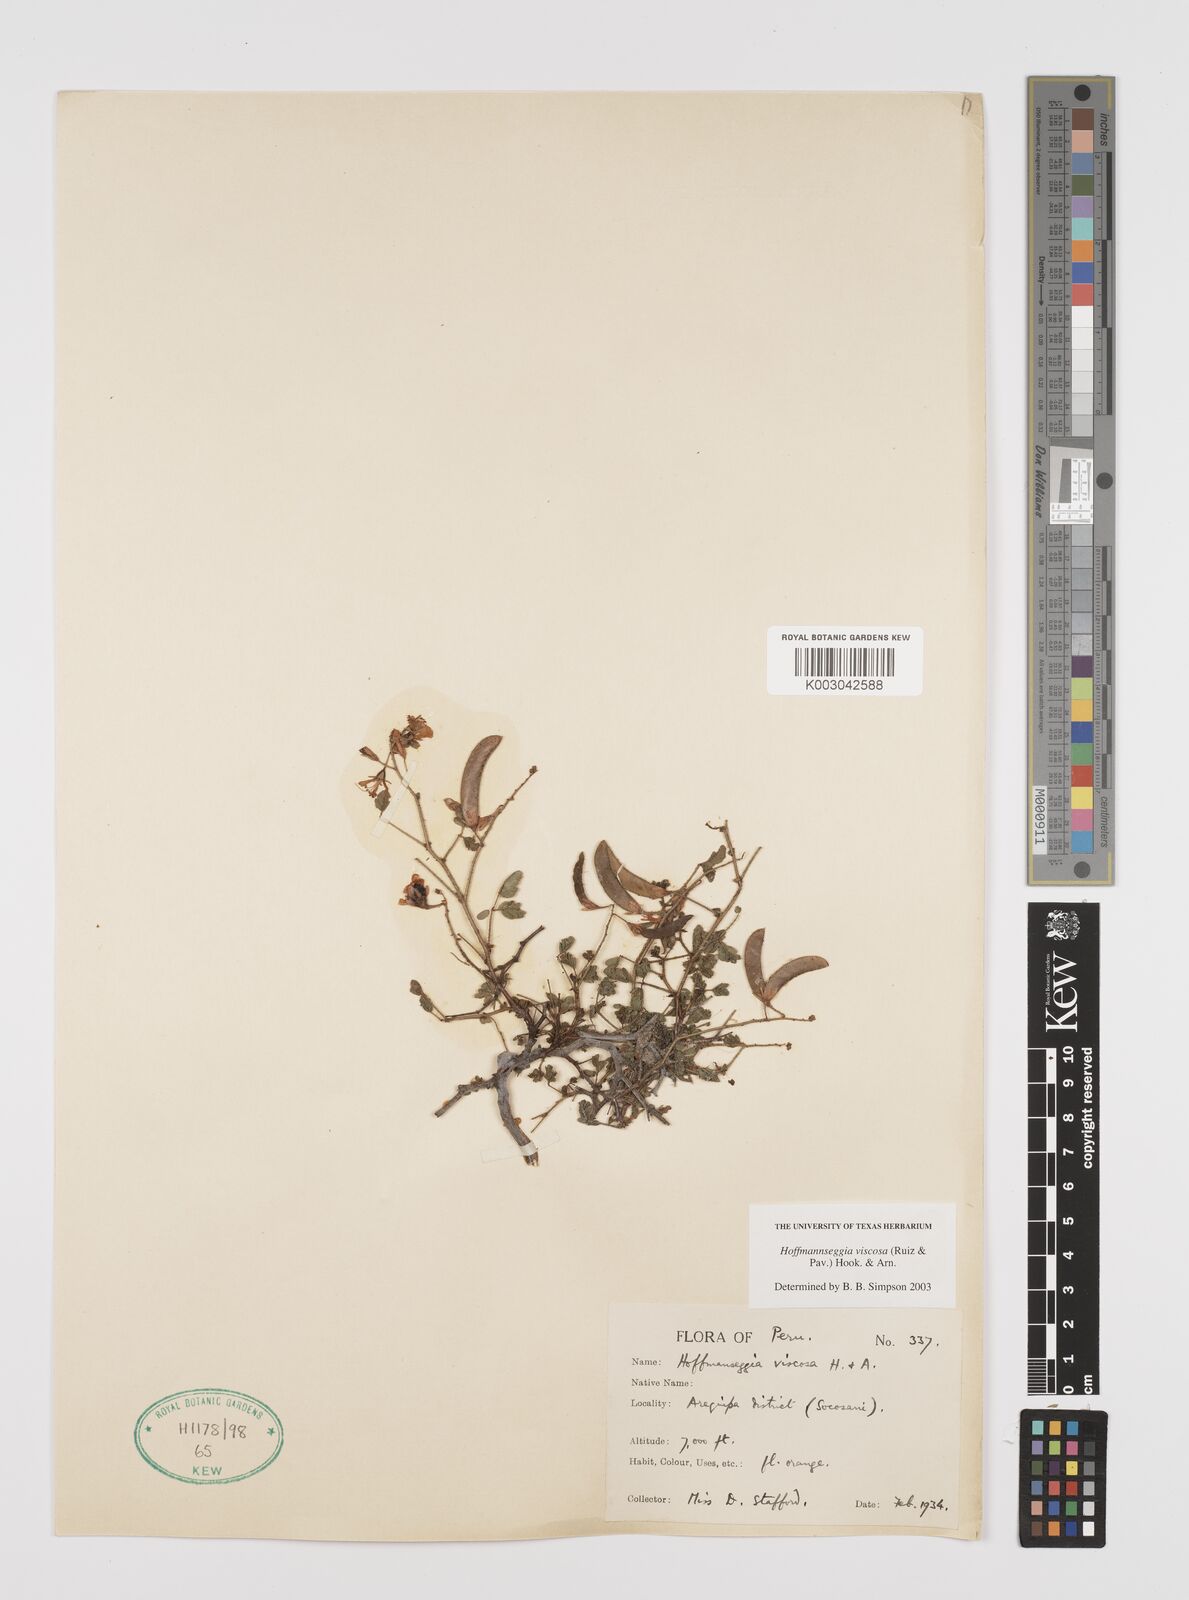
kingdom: Plantae
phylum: Tracheophyta
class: Magnoliopsida
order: Fabales
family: Fabaceae
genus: Hoffmannseggia
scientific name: Hoffmannseggia viscosa
